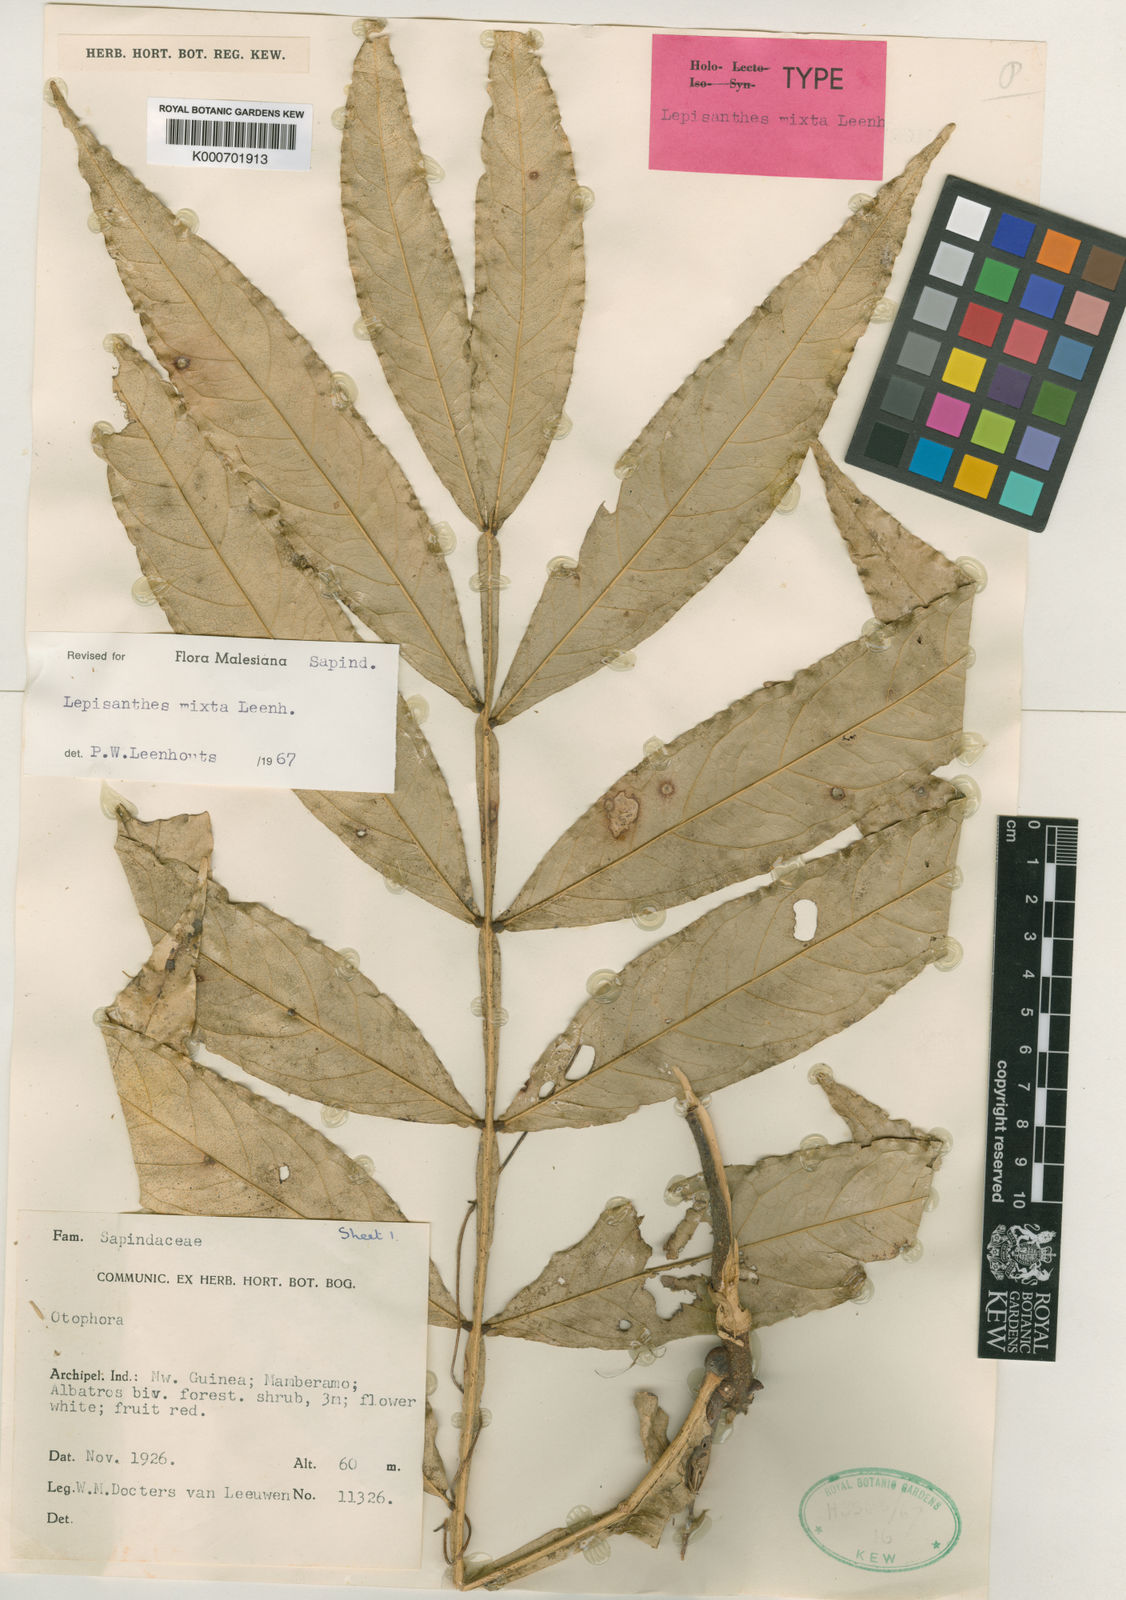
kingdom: Plantae
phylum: Tracheophyta
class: Magnoliopsida
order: Sapindales
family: Sapindaceae
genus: Lepisanthes
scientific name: Lepisanthes mixta
